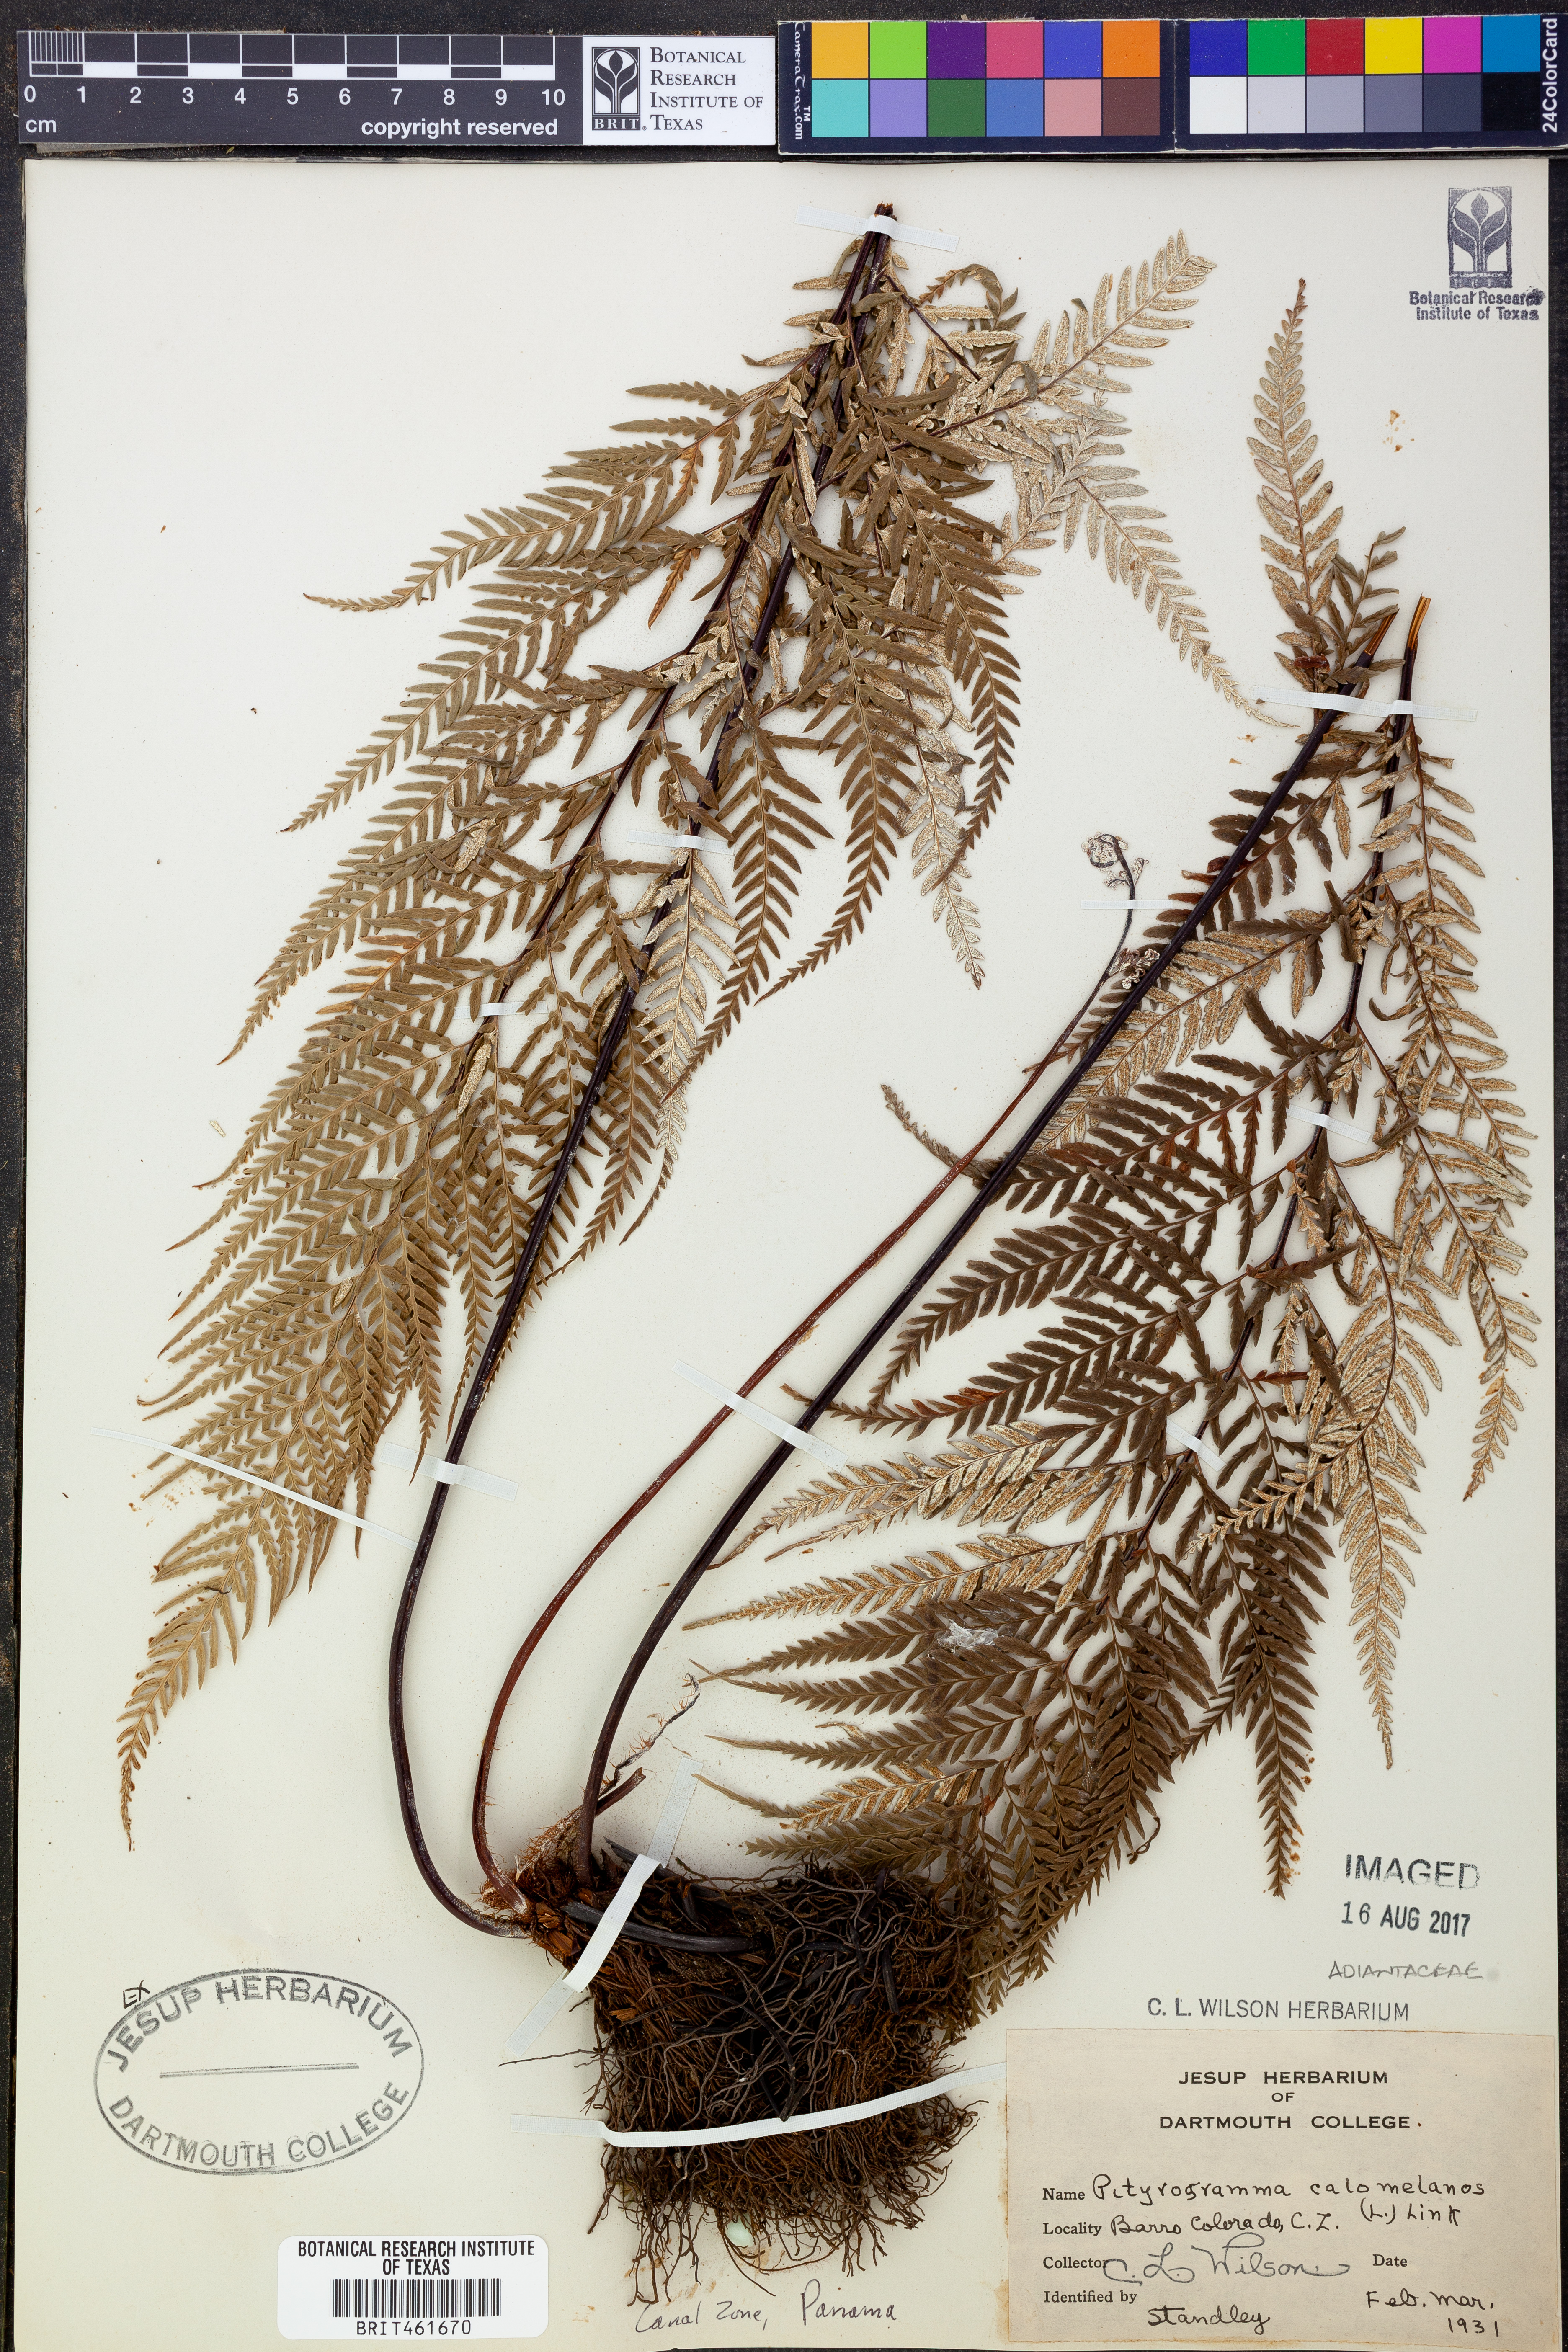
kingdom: Plantae
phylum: Tracheophyta
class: Polypodiopsida
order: Polypodiales
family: Pteridaceae
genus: Pityrogramma
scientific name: Pityrogramma calomelanos
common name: Dixie silverback fern
